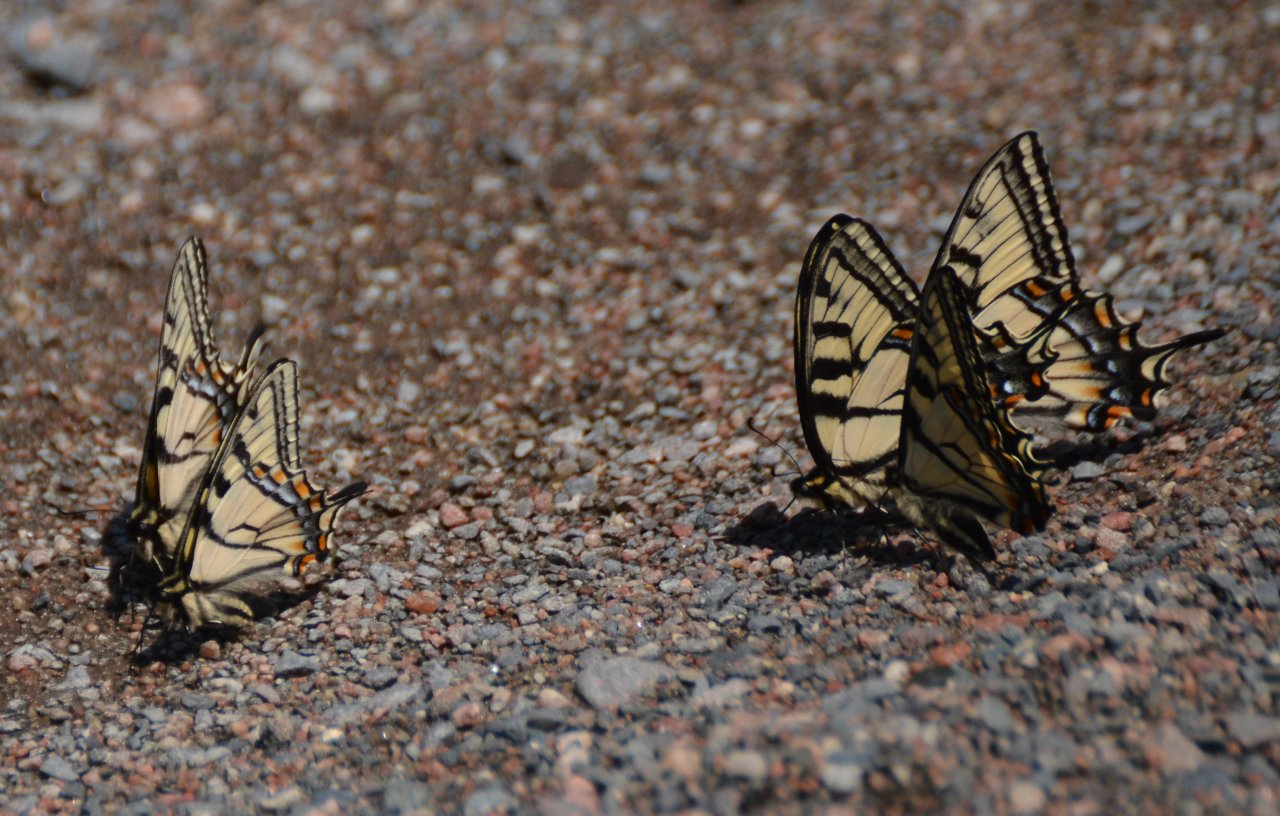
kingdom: Animalia
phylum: Arthropoda
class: Insecta
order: Lepidoptera
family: Papilionidae
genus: Pterourus
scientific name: Pterourus canadensis
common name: Canadian Tiger Swallowtail
